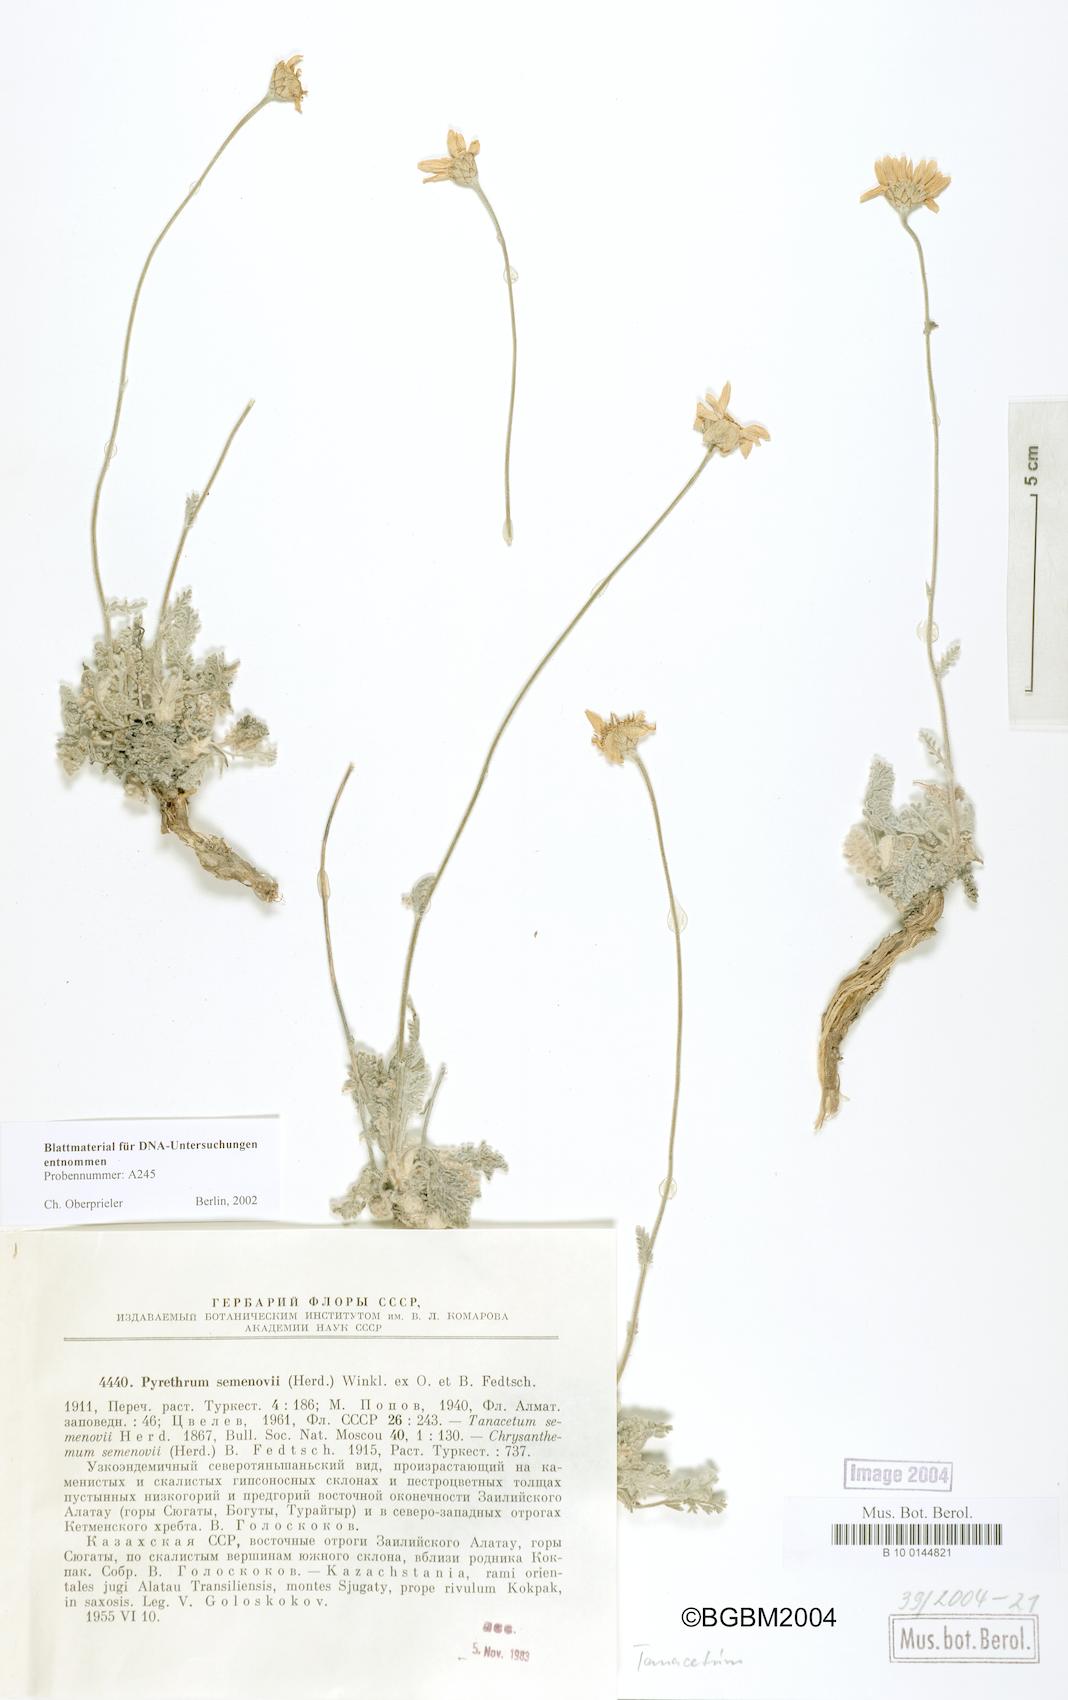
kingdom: Plantae
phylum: Tracheophyta
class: Magnoliopsida
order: Asterales
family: Asteraceae
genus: Richteria
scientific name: Richteria semenovii
